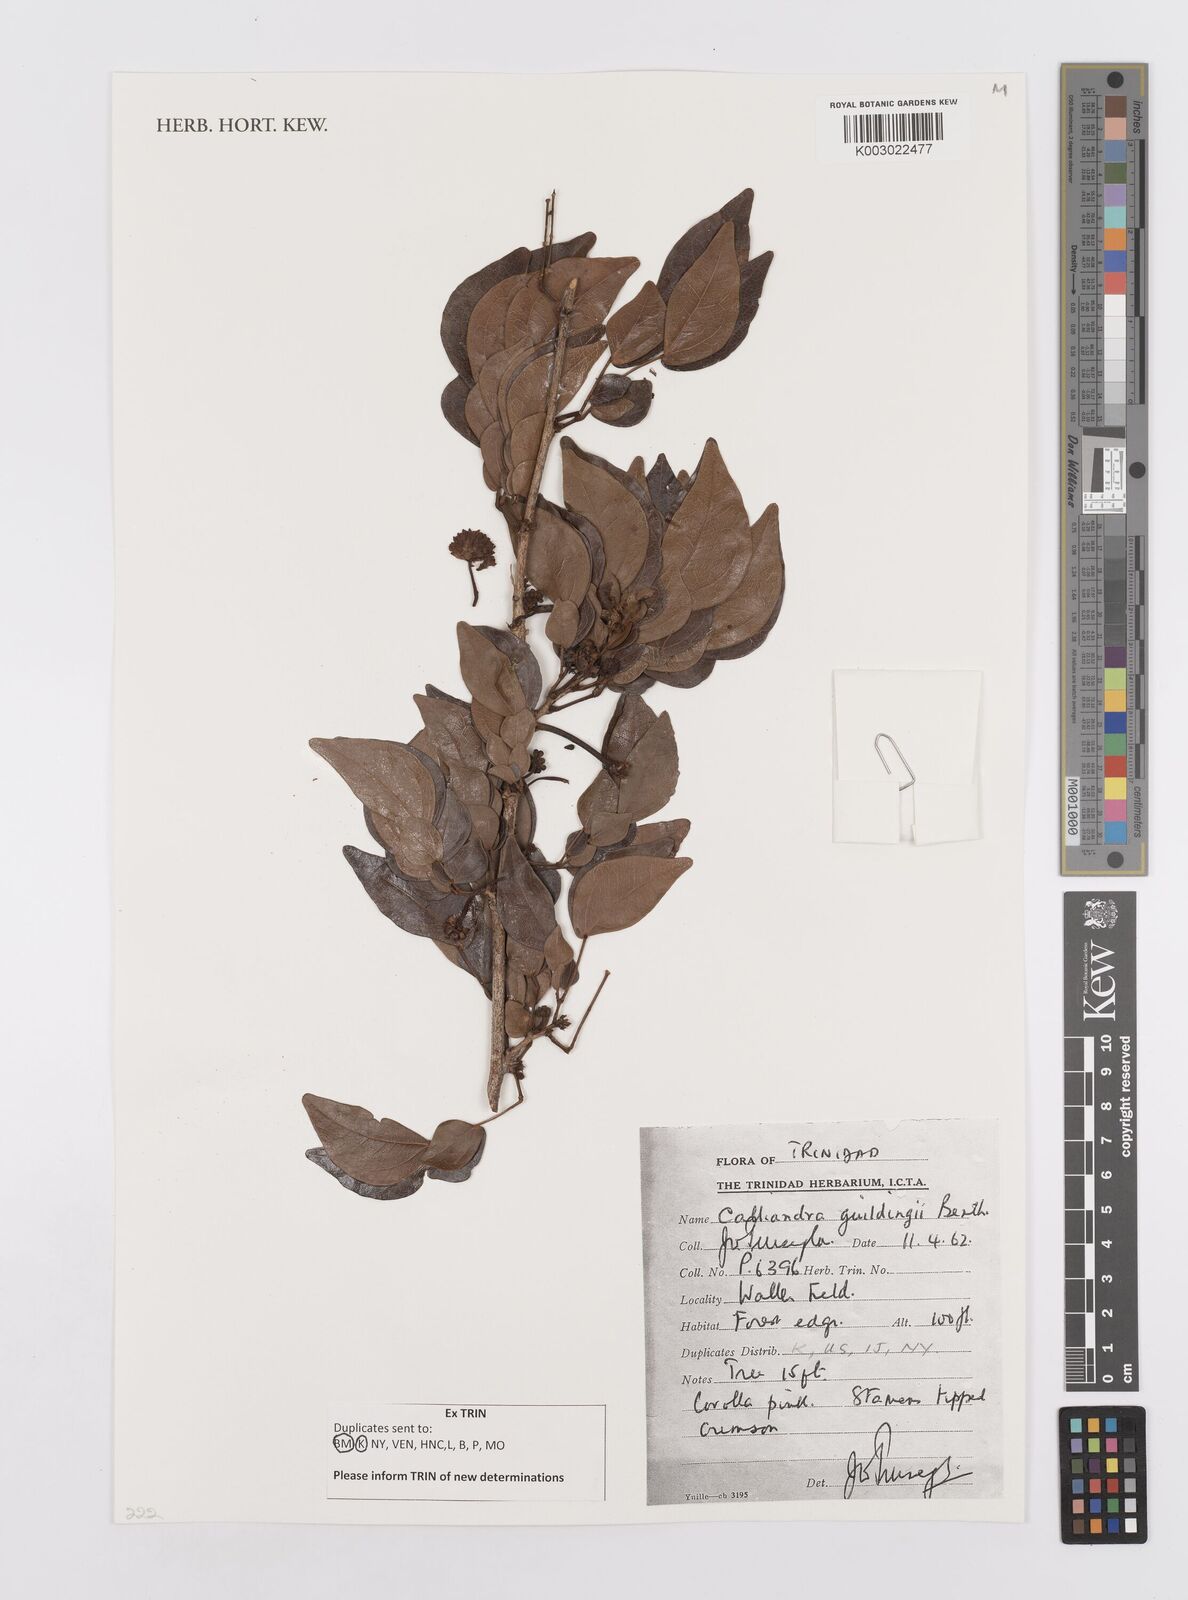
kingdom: Plantae
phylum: Tracheophyta
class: Magnoliopsida
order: Fabales
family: Fabaceae
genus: Calliandra
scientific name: Calliandra guildingii
